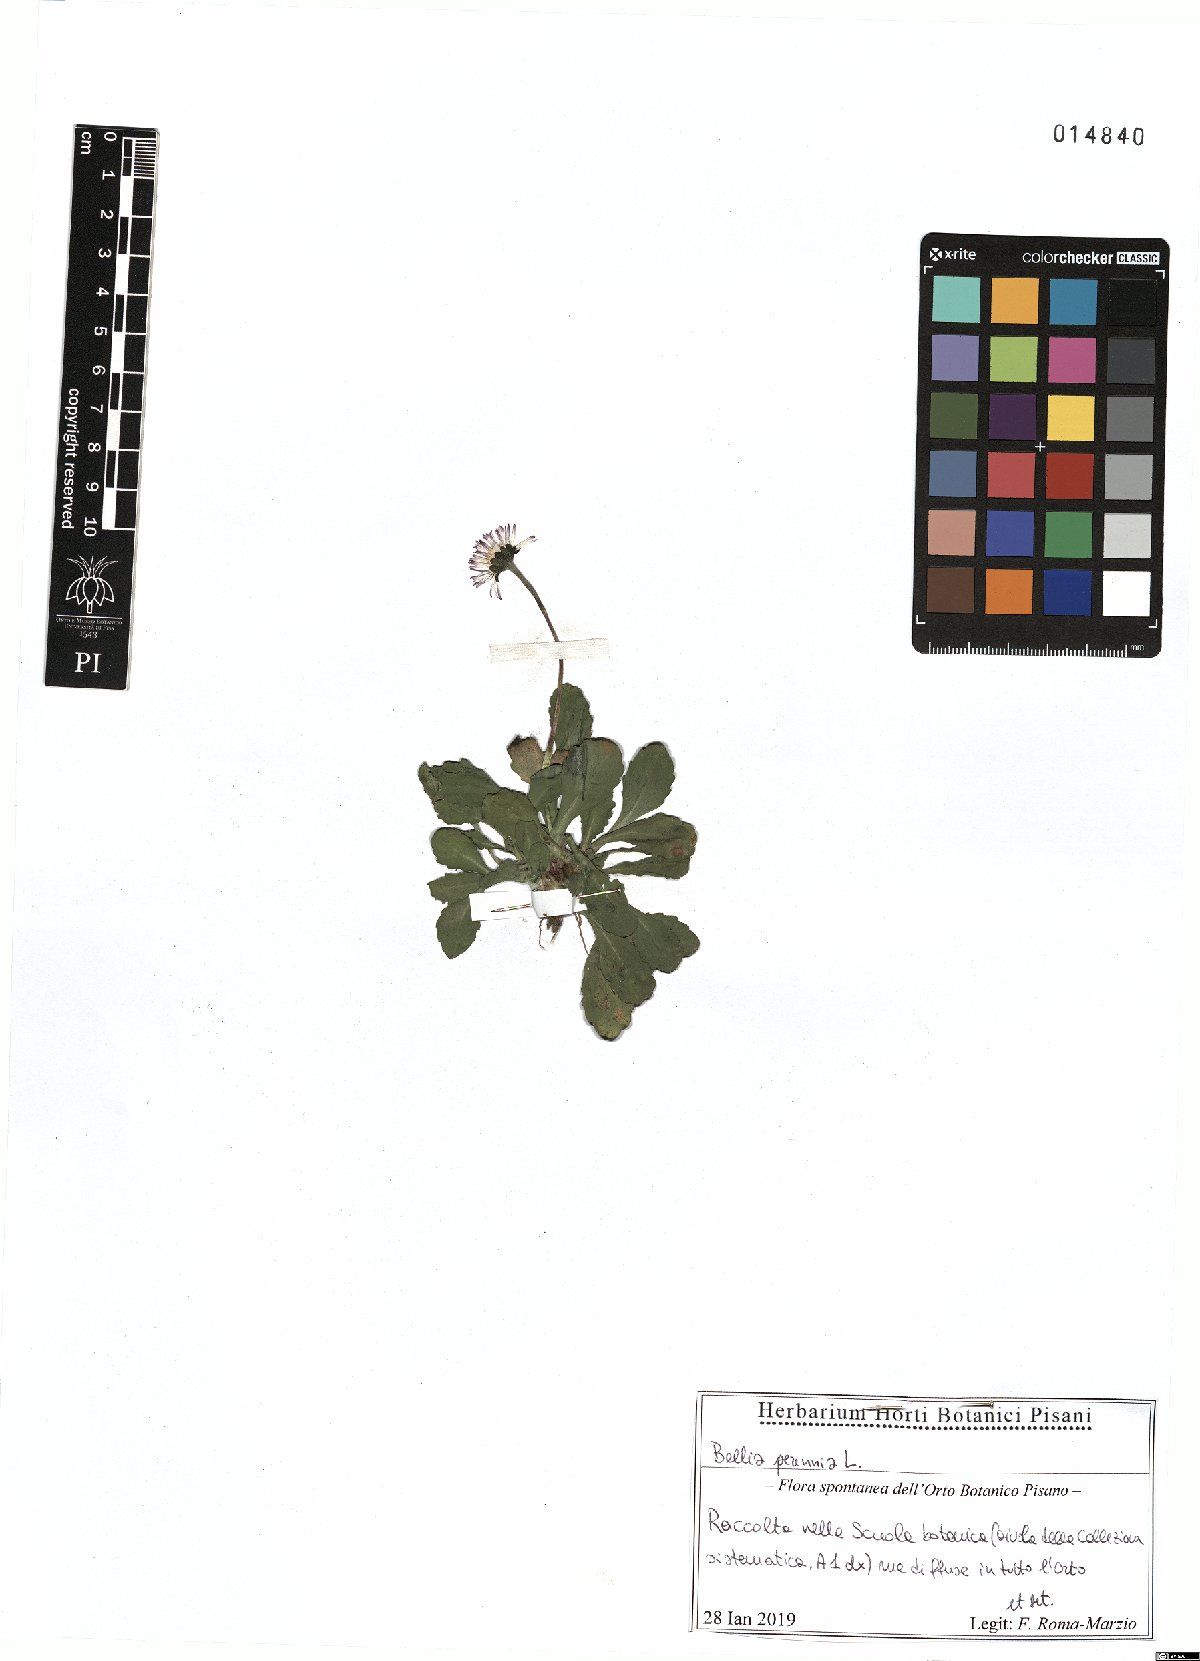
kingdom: Plantae
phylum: Tracheophyta
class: Magnoliopsida
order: Asterales
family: Asteraceae
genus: Bellis
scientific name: Bellis perennis
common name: Lawndaisy
